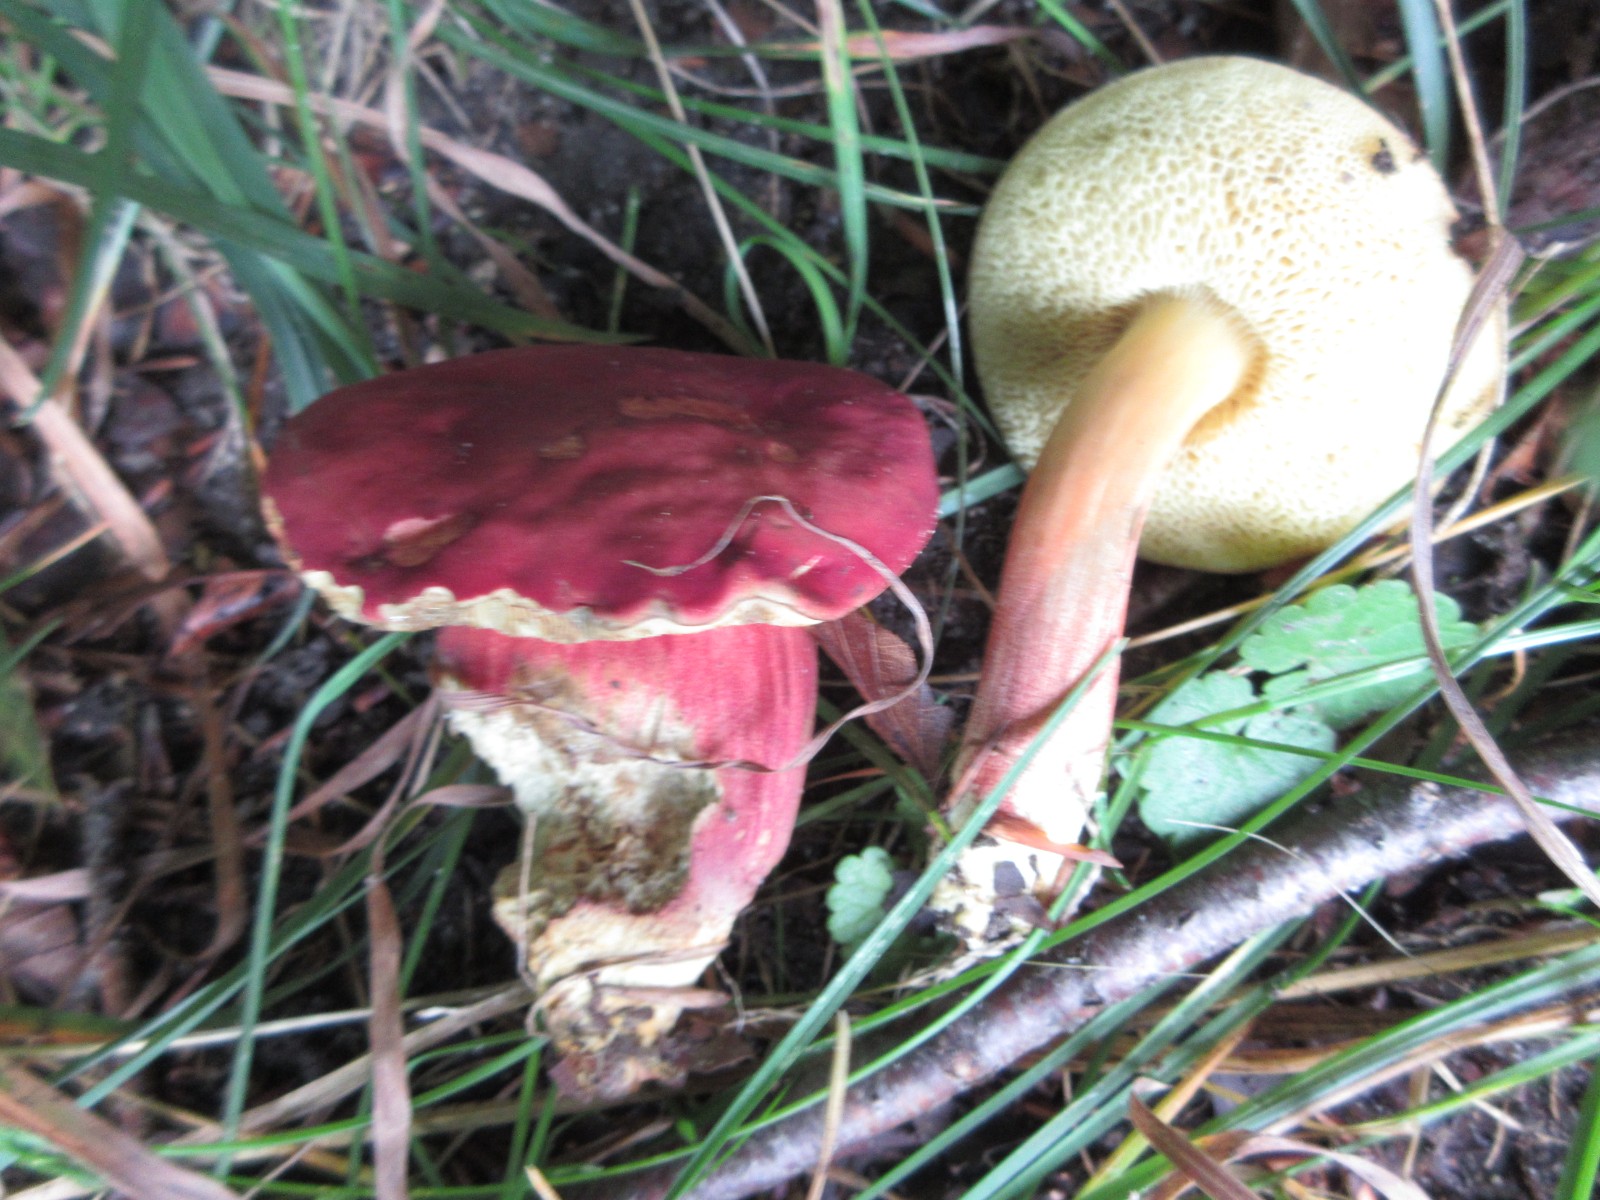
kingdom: Fungi
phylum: Basidiomycota
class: Agaricomycetes
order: Boletales
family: Boletaceae
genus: Hortiboletus
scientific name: Hortiboletus rubellus
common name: blodrød rørhat
